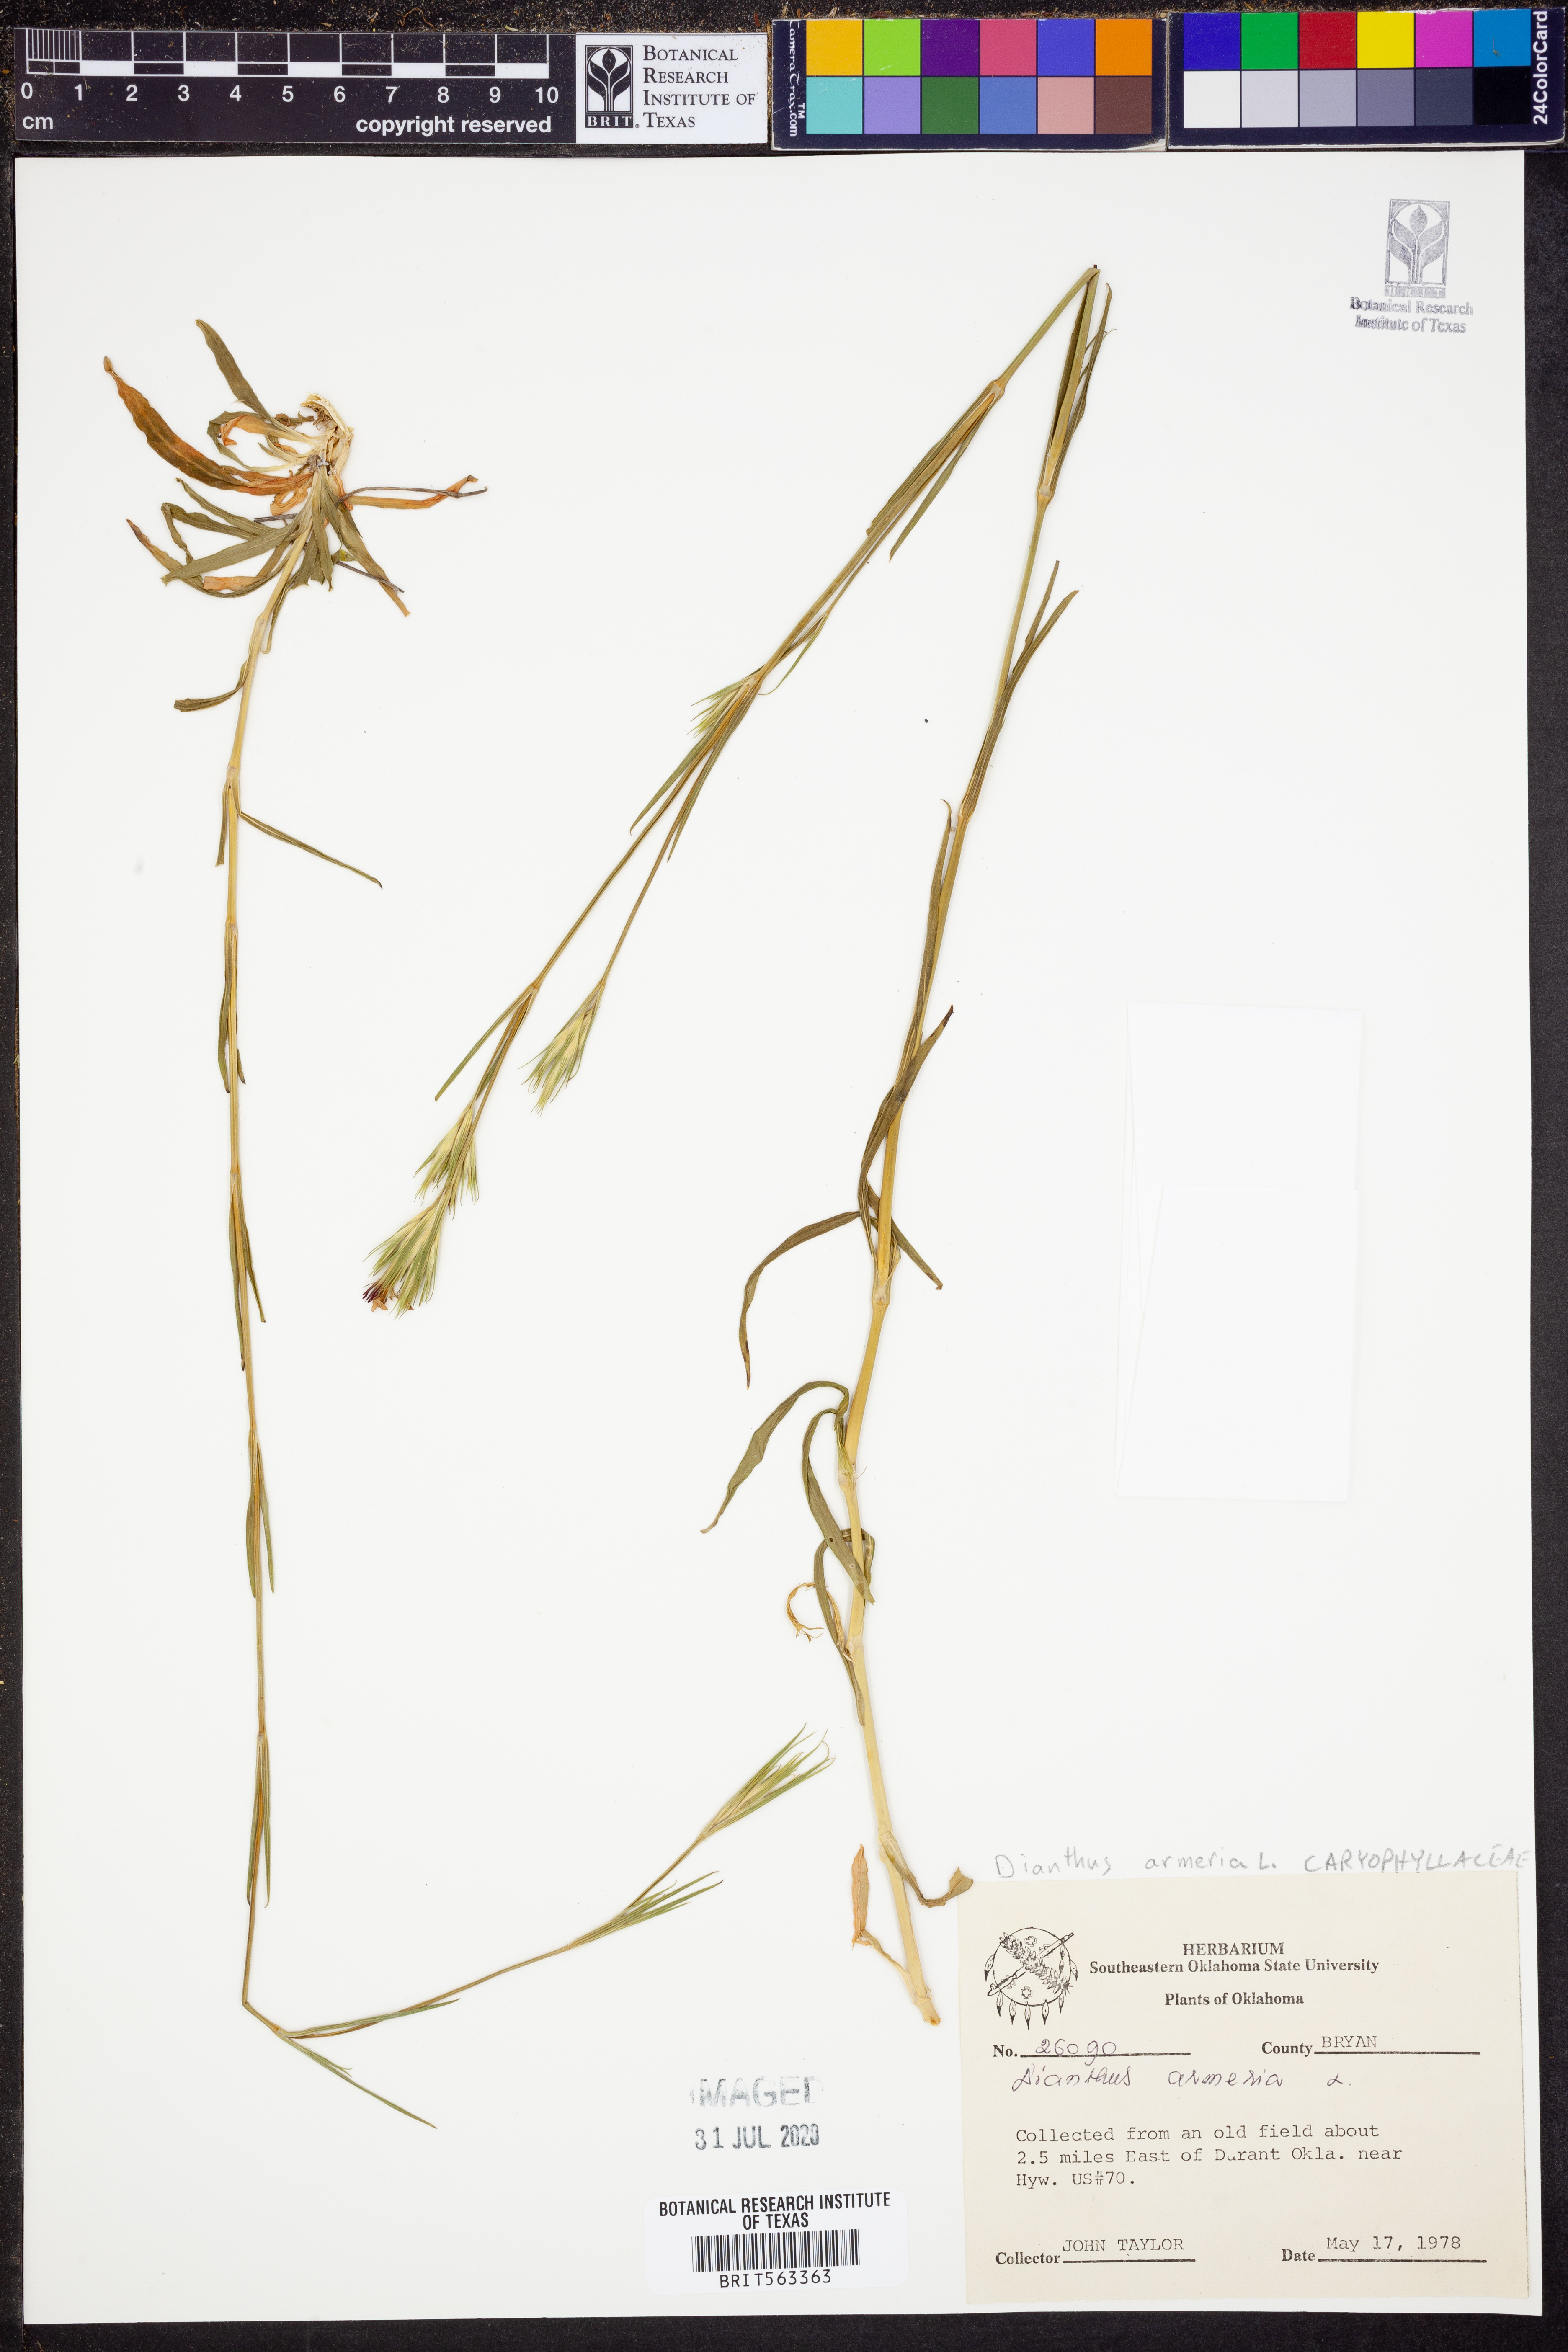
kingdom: Plantae
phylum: Tracheophyta
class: Magnoliopsida
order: Caryophyllales
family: Caryophyllaceae
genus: Dianthus
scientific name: Dianthus armeria
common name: Deptford pink
